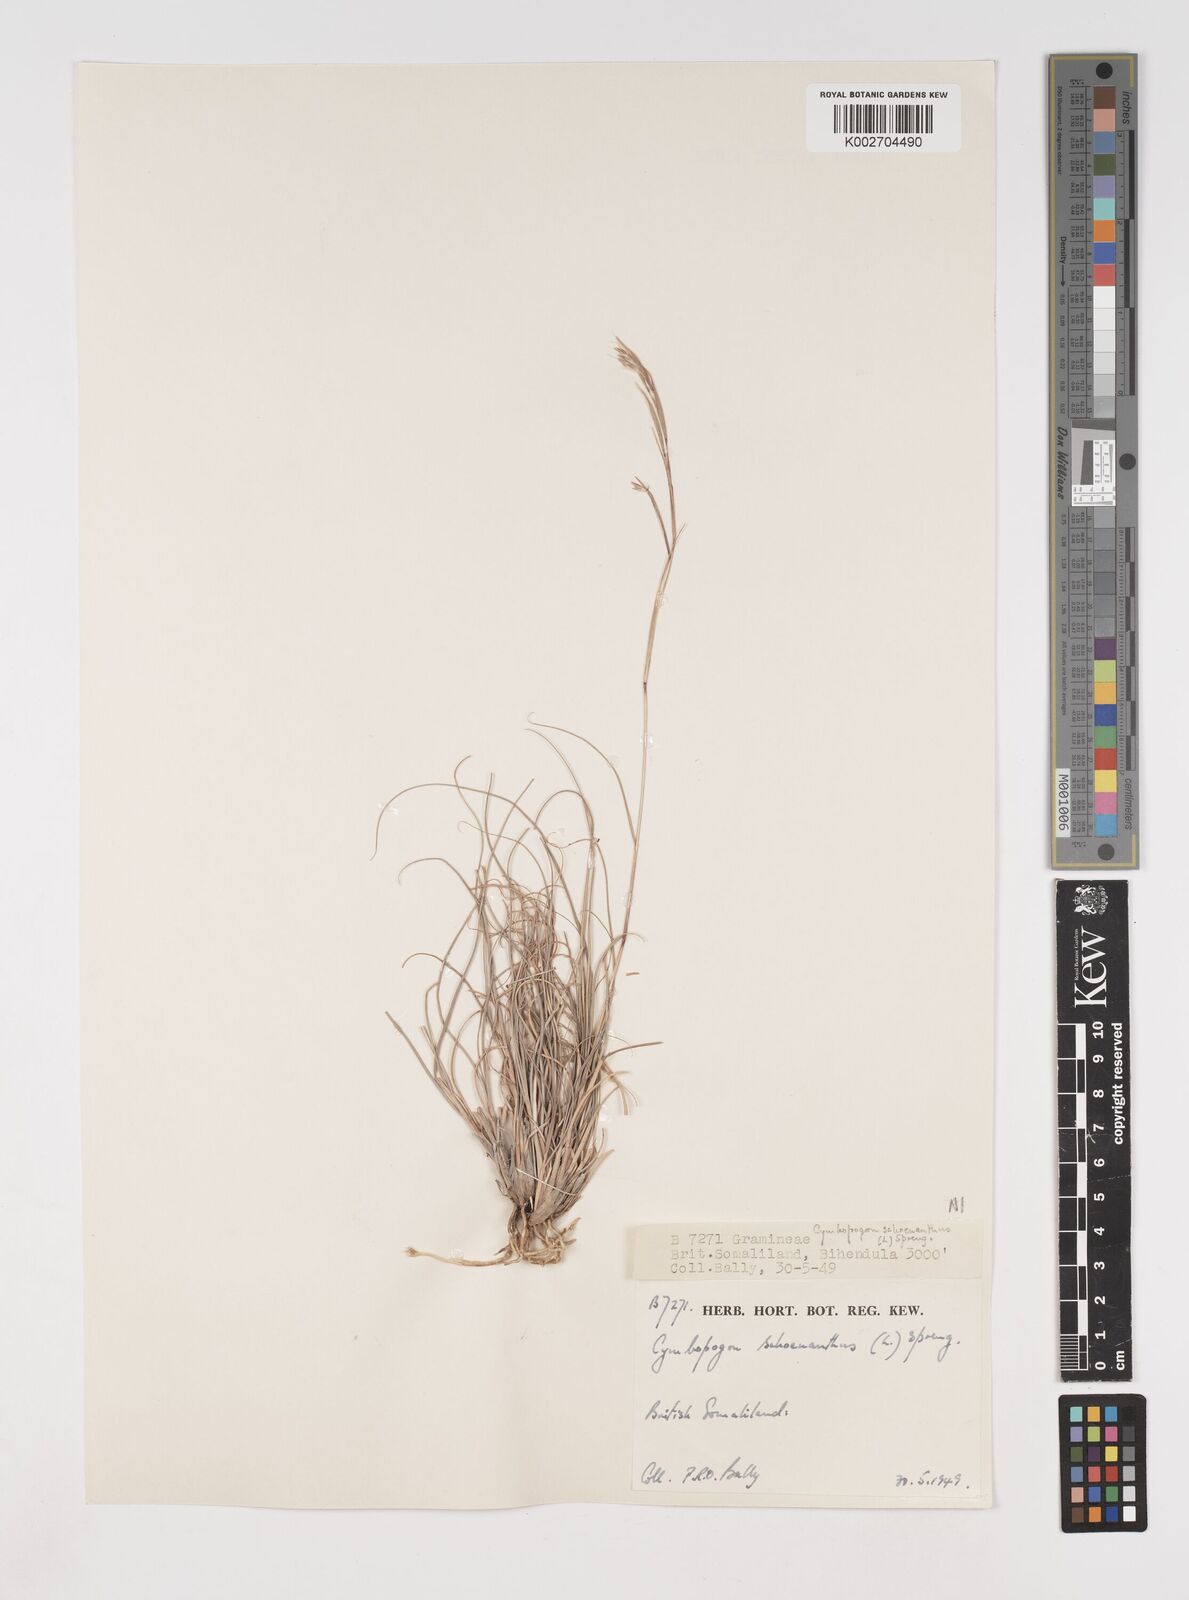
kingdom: Plantae
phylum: Tracheophyta
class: Liliopsida
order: Poales
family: Poaceae
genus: Cymbopogon
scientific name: Cymbopogon schoenanthus
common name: Geranium grass
